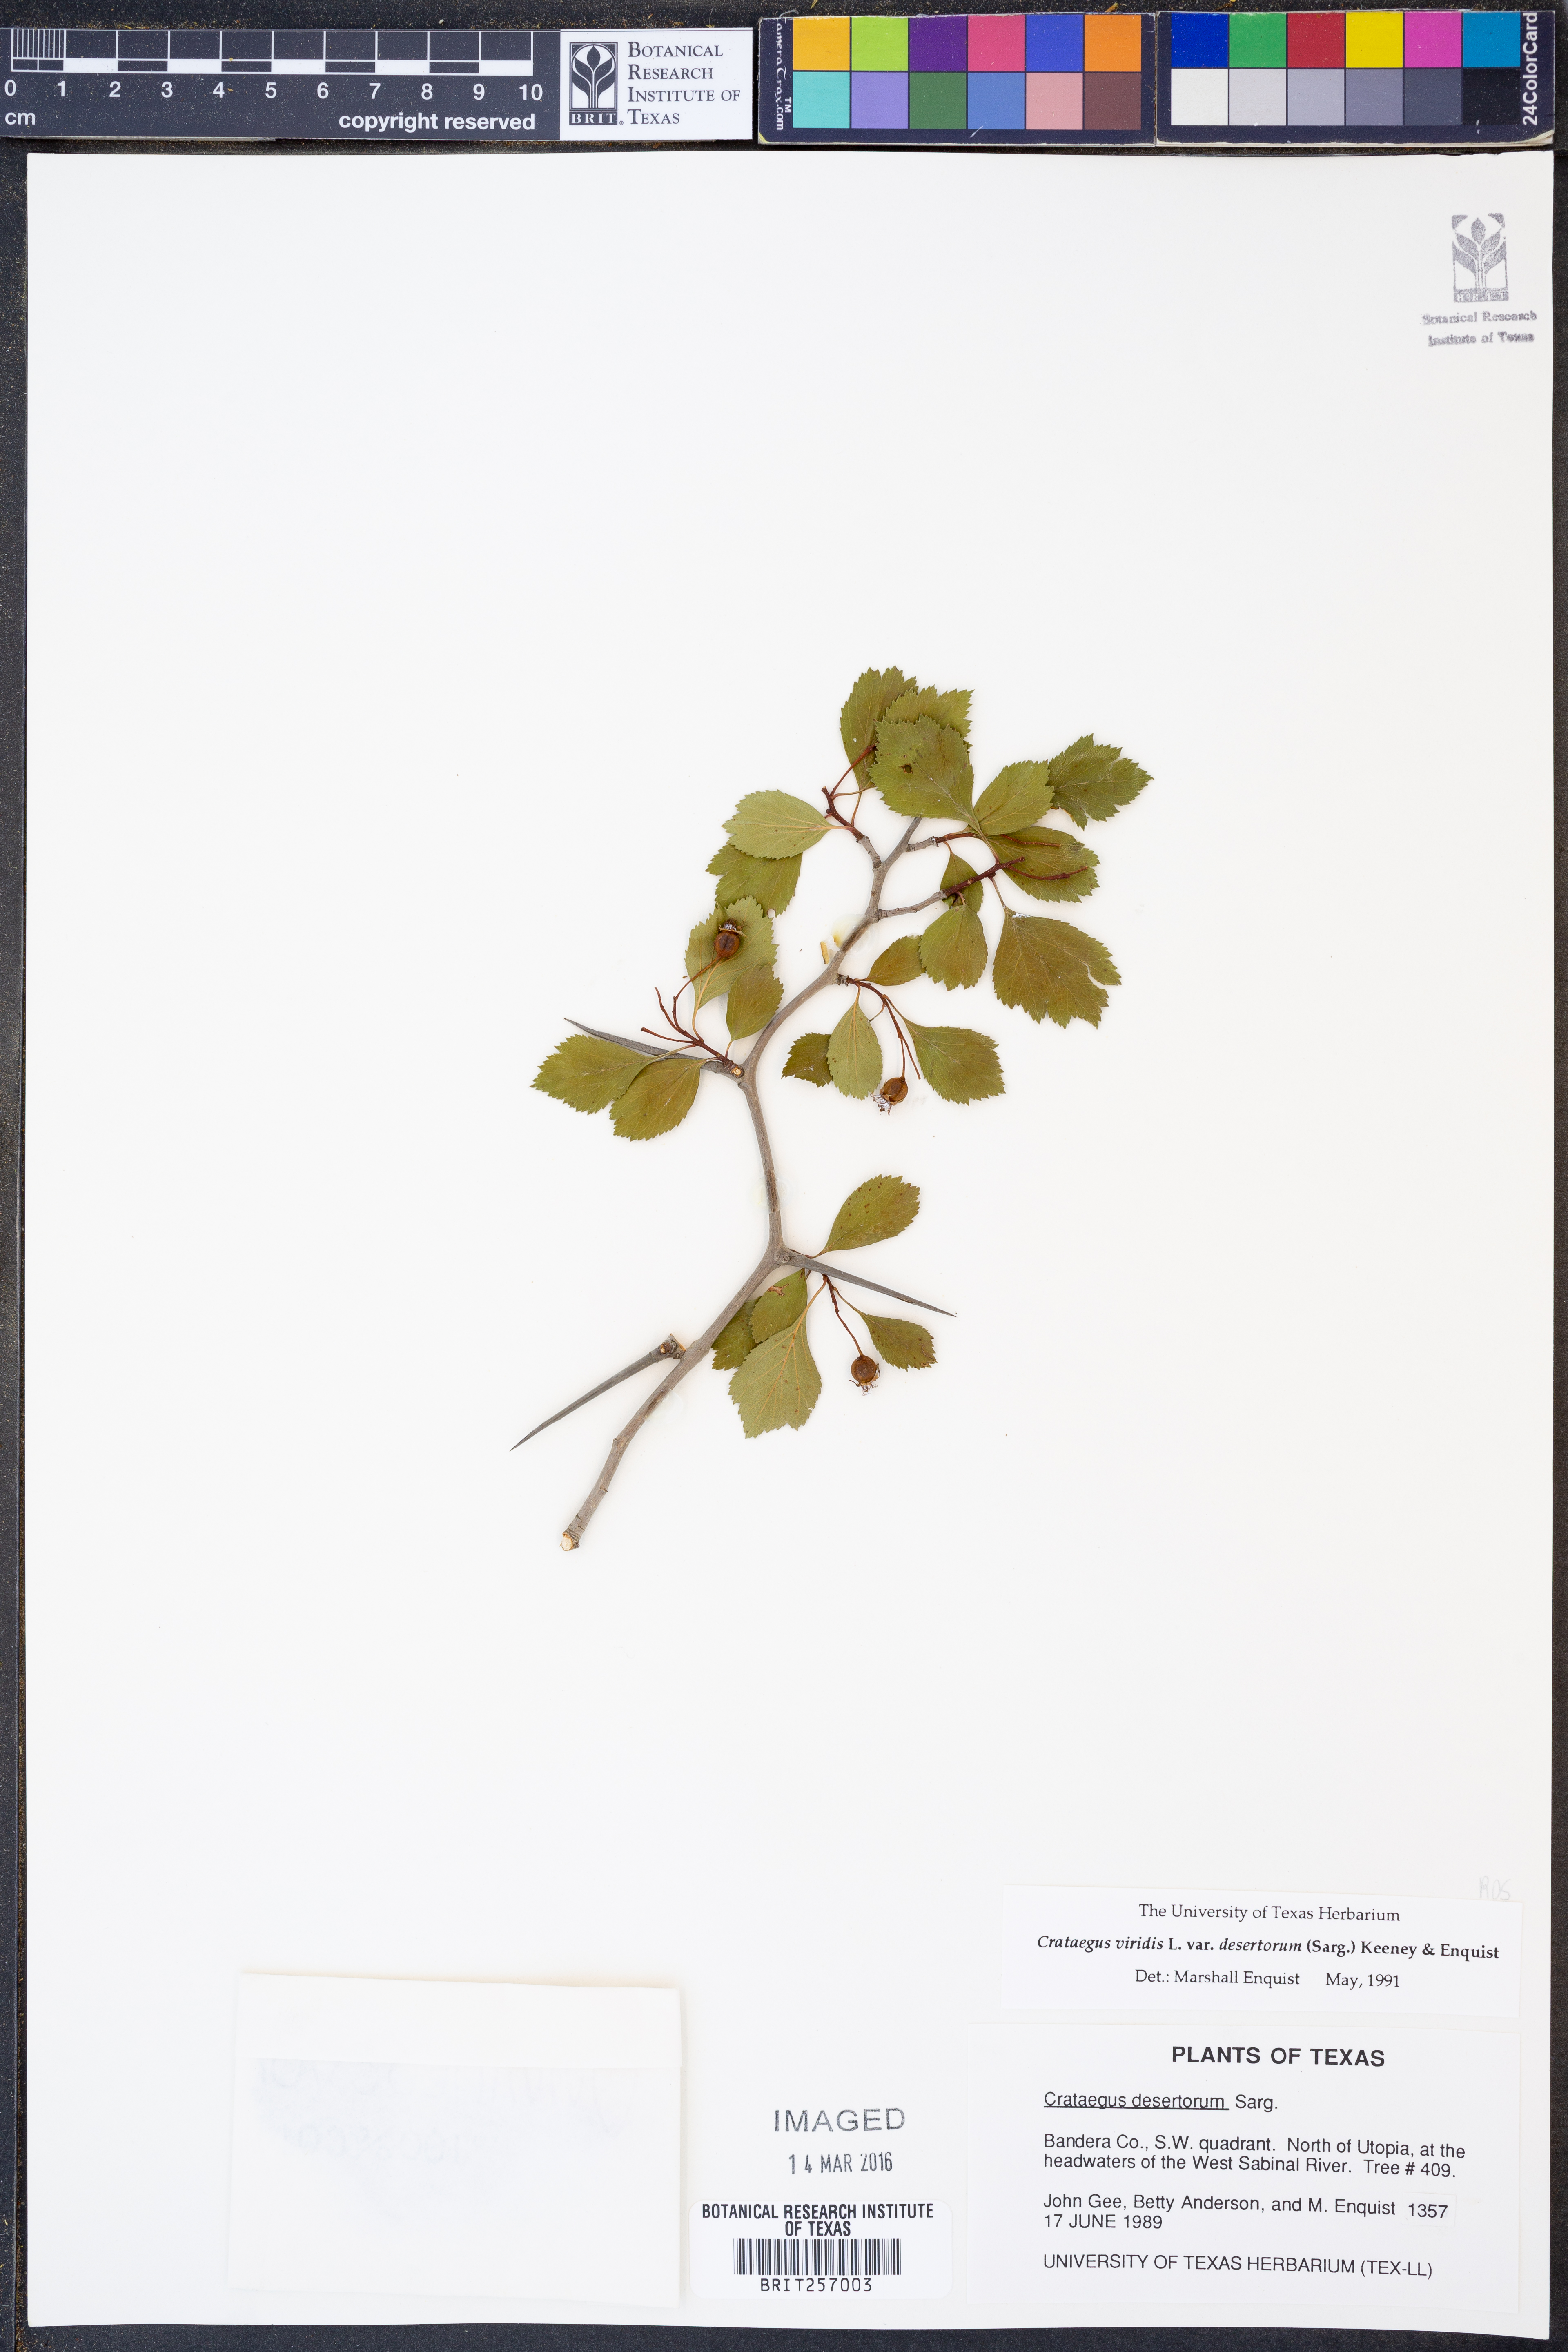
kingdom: Plantae
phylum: Tracheophyta
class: Magnoliopsida
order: Rosales
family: Rosaceae
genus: Crataegus
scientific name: Crataegus viridis
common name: Southernthorn
